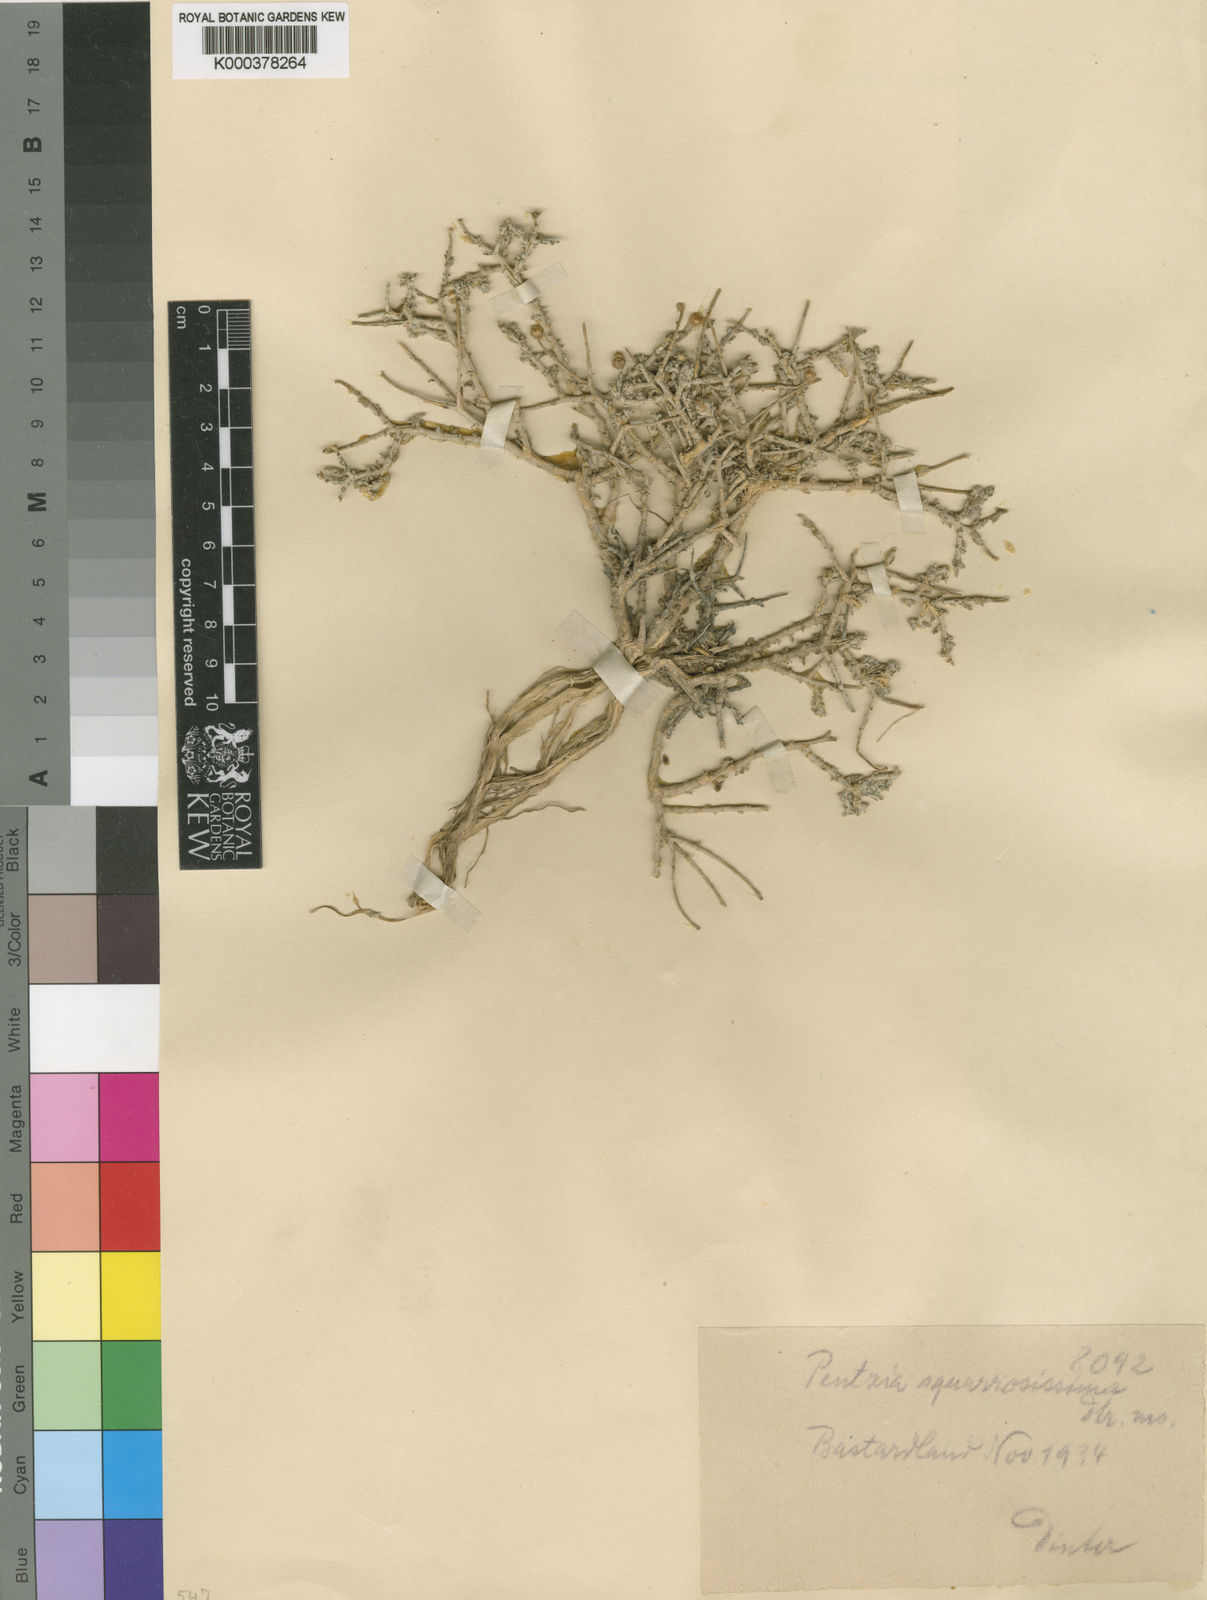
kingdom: Plantae
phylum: Tracheophyta
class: Magnoliopsida
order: Asterales
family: Asteraceae
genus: Pentzia
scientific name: Pentzia
